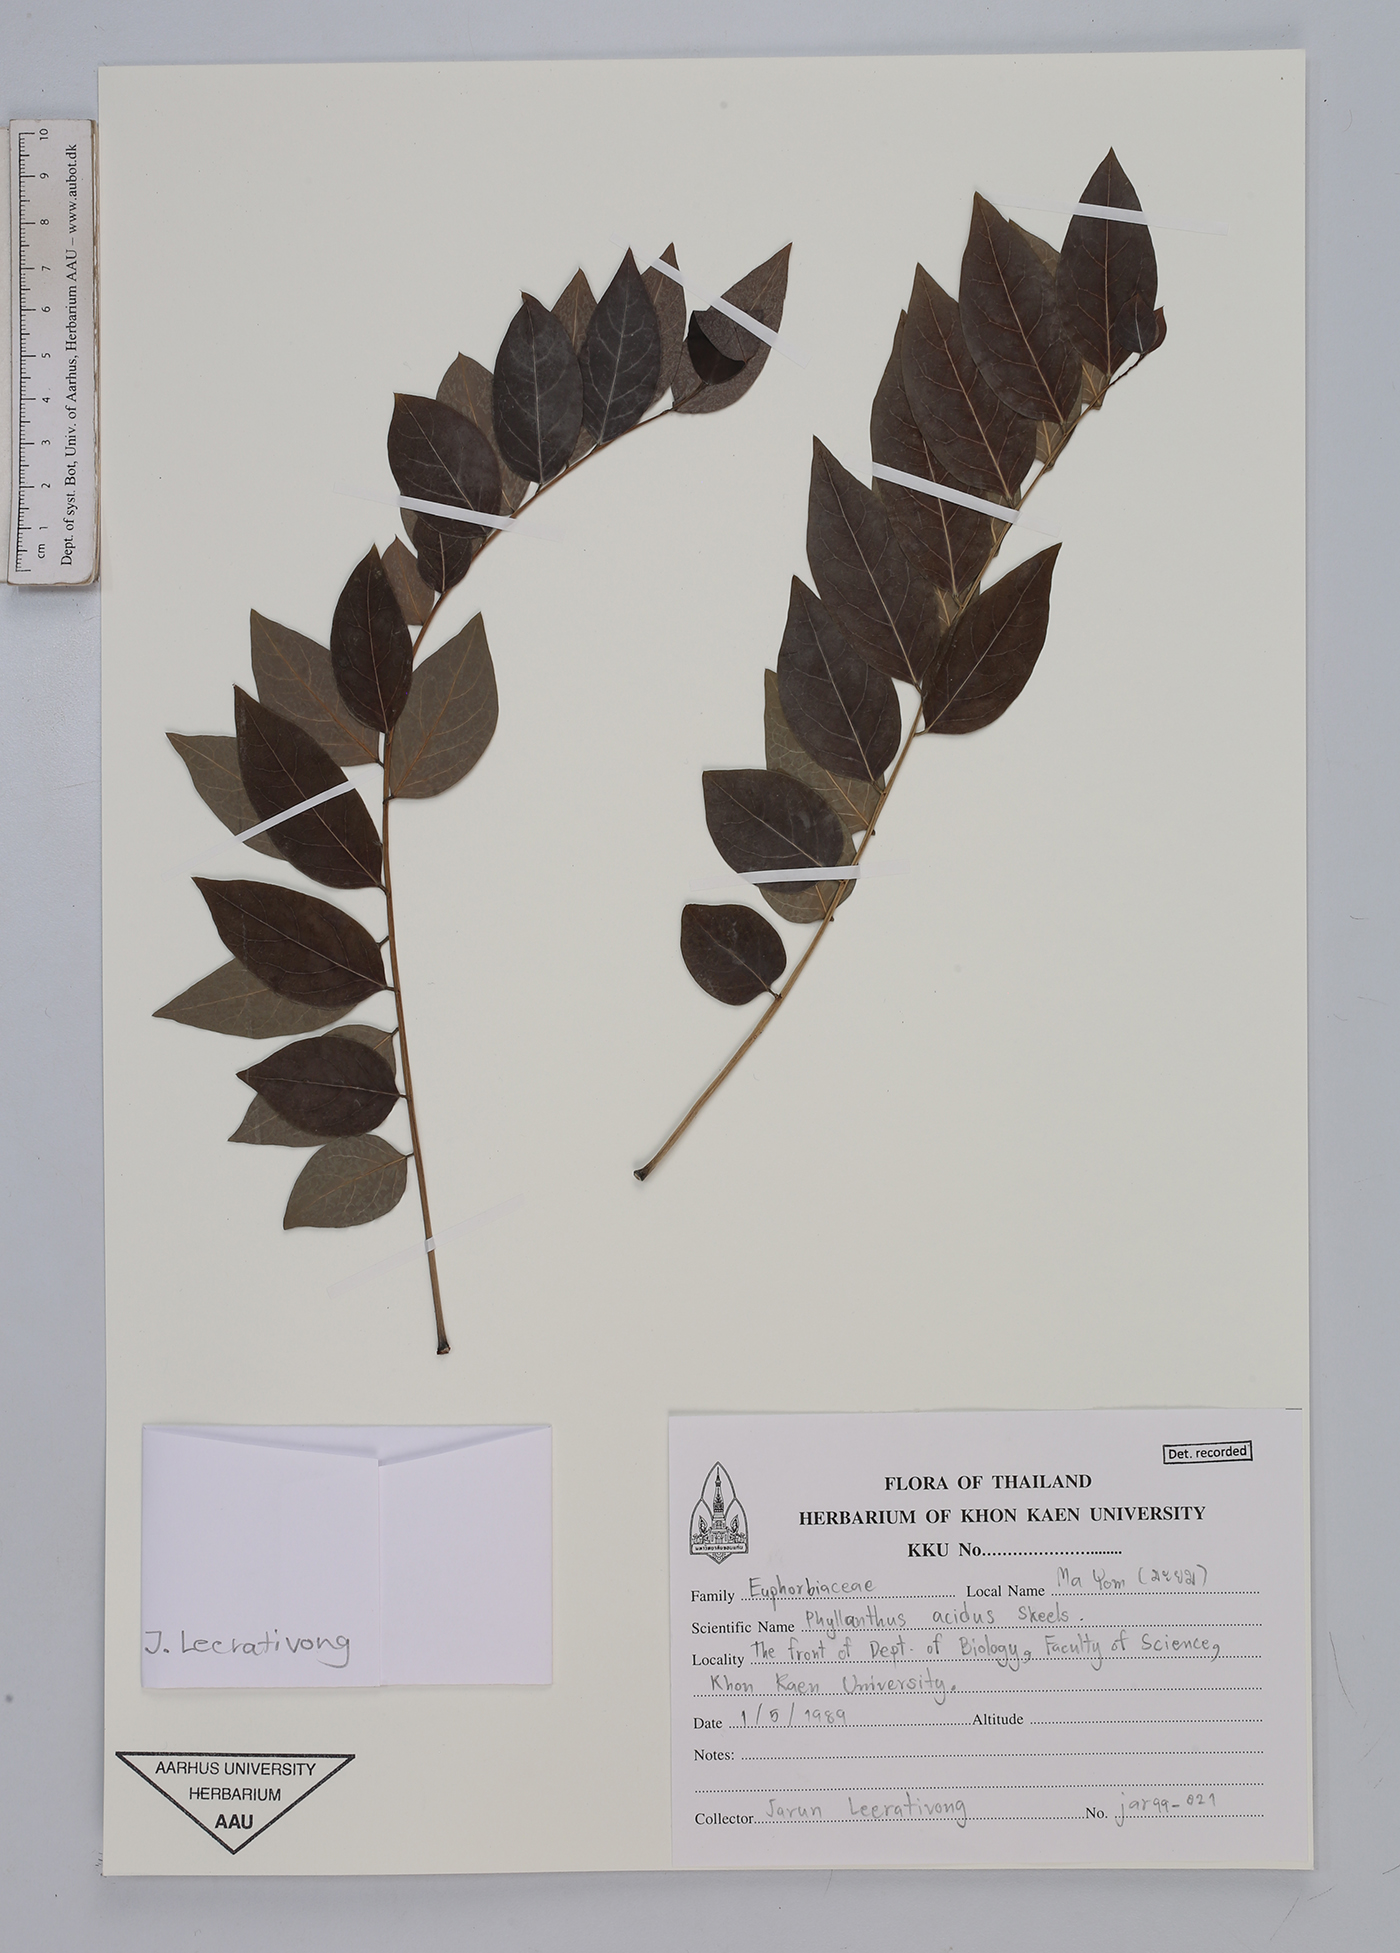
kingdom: Plantae
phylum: Tracheophyta
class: Magnoliopsida
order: Malpighiales
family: Phyllanthaceae
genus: Phyllanthus
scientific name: Phyllanthus acidus
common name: Tahitian gooseberry tree
